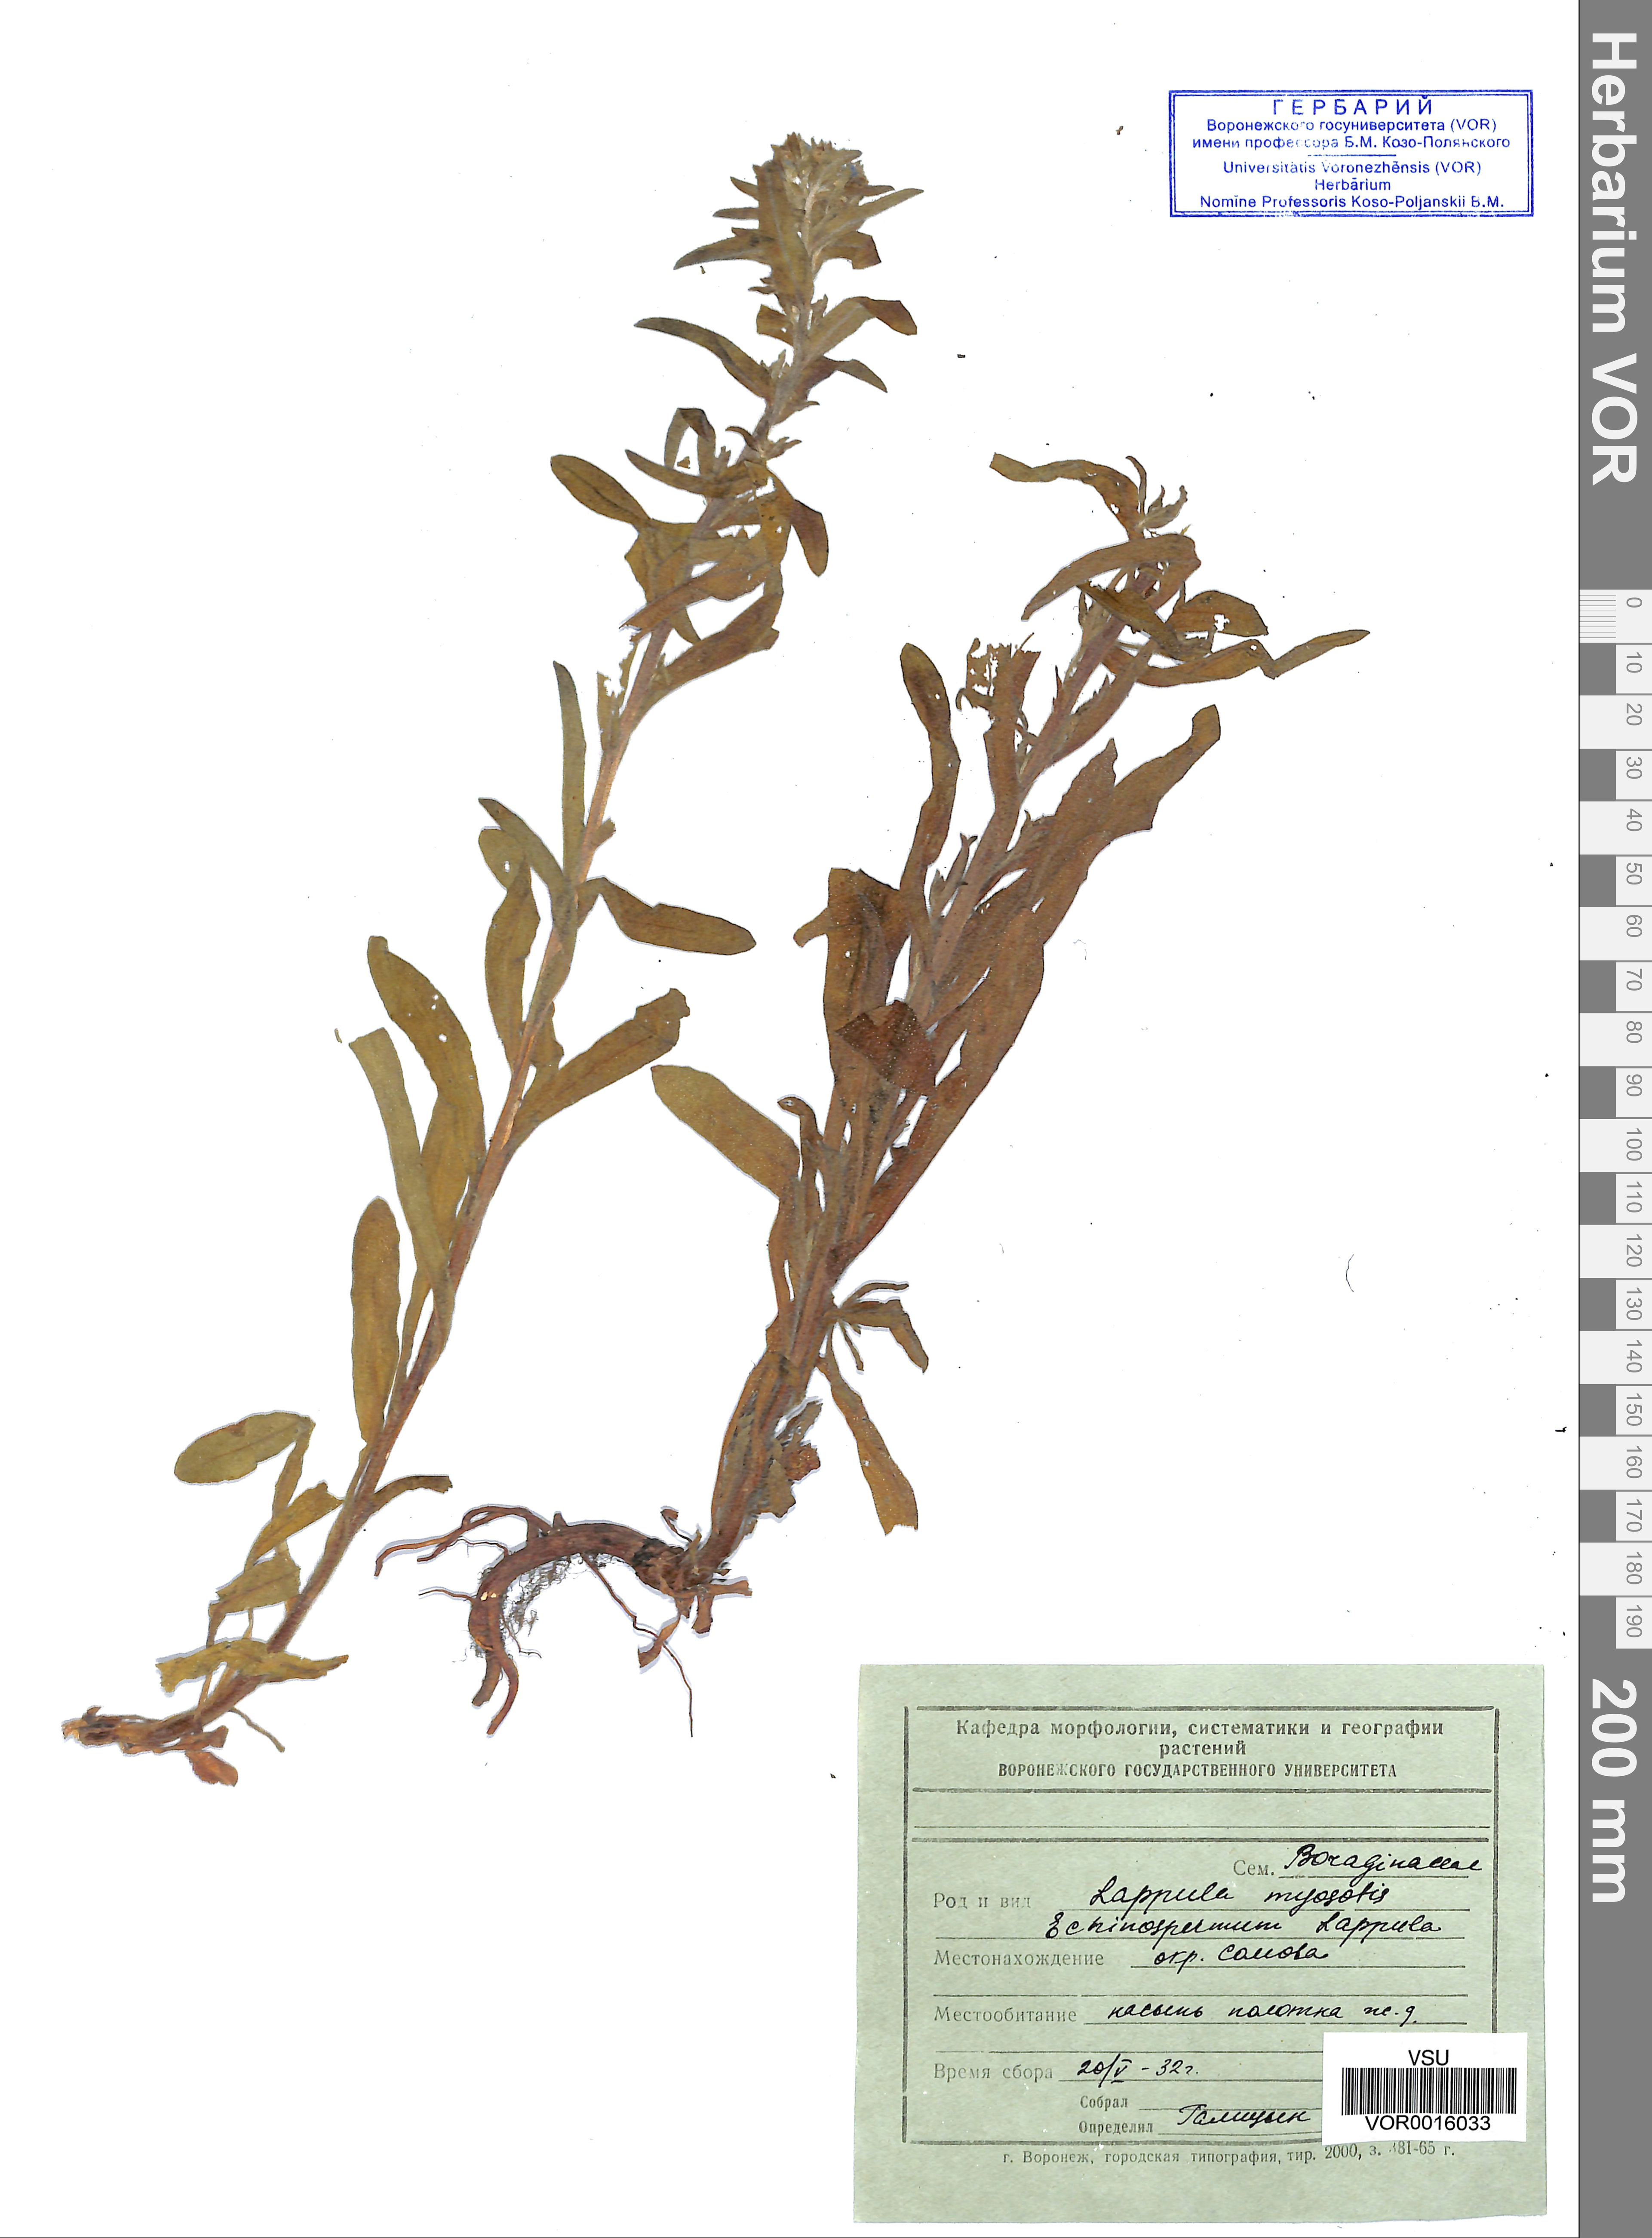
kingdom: Plantae
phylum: Tracheophyta
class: Magnoliopsida
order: Boraginales
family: Boraginaceae
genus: Lappula
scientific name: Lappula squarrosa
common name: European stickseed
